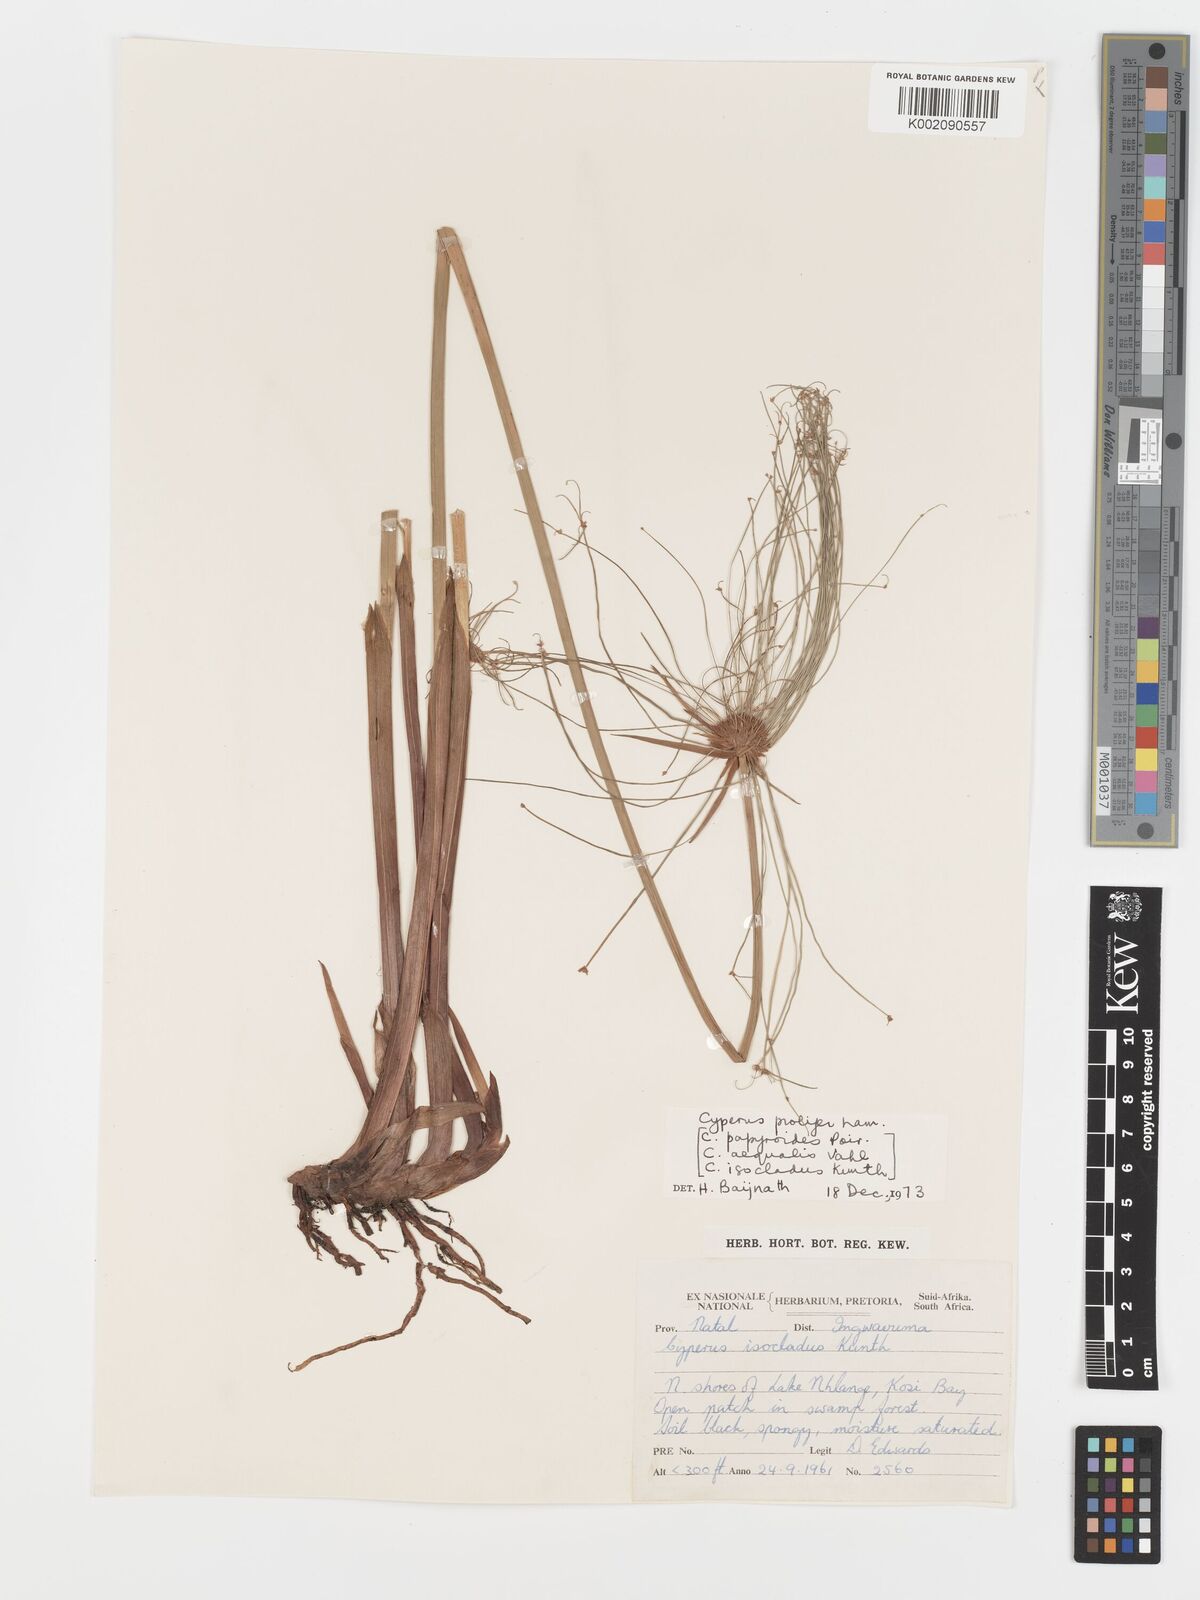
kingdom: Plantae
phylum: Tracheophyta
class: Liliopsida
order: Poales
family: Cyperaceae
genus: Cyperus
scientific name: Cyperus prolifer
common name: Miniature flatsedge
